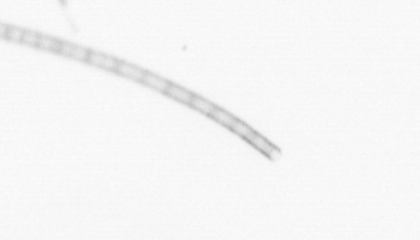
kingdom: Chromista
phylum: Ochrophyta
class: Bacillariophyceae
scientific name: Bacillariophyceae
